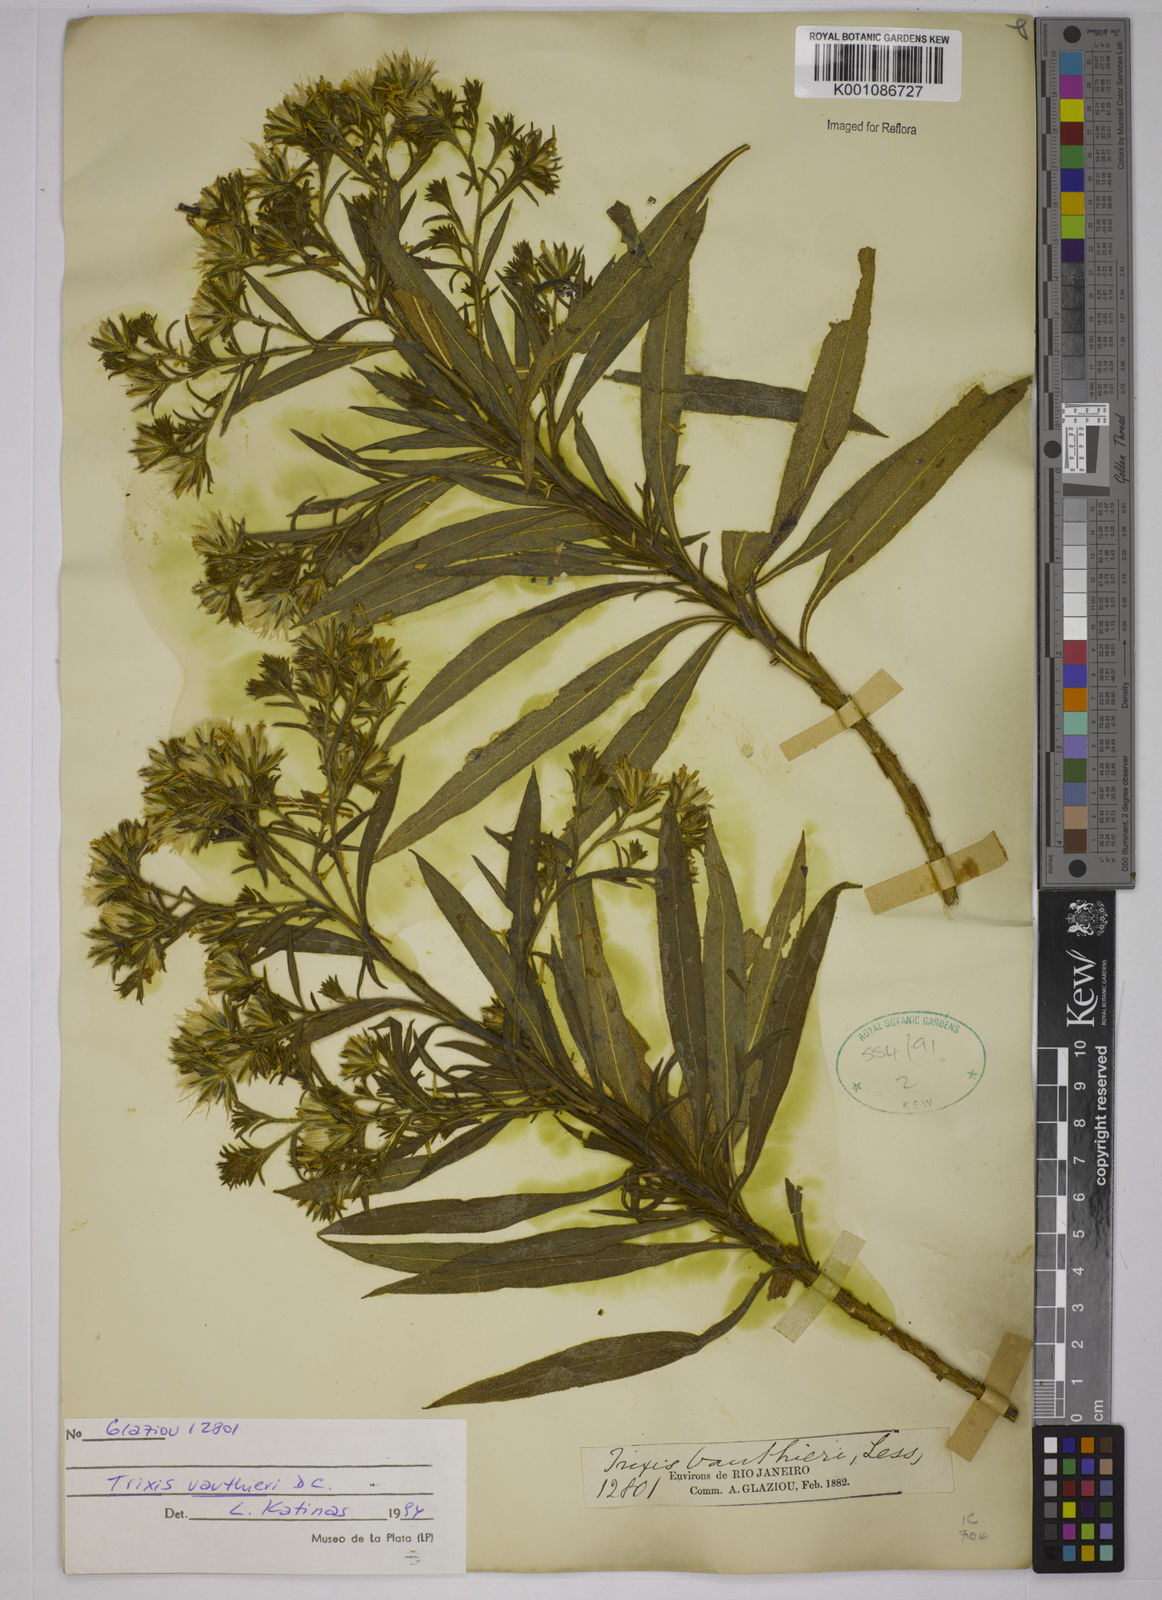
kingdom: Plantae
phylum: Tracheophyta
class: Magnoliopsida
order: Asterales
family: Asteraceae
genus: Trixis
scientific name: Trixis vauthieri
